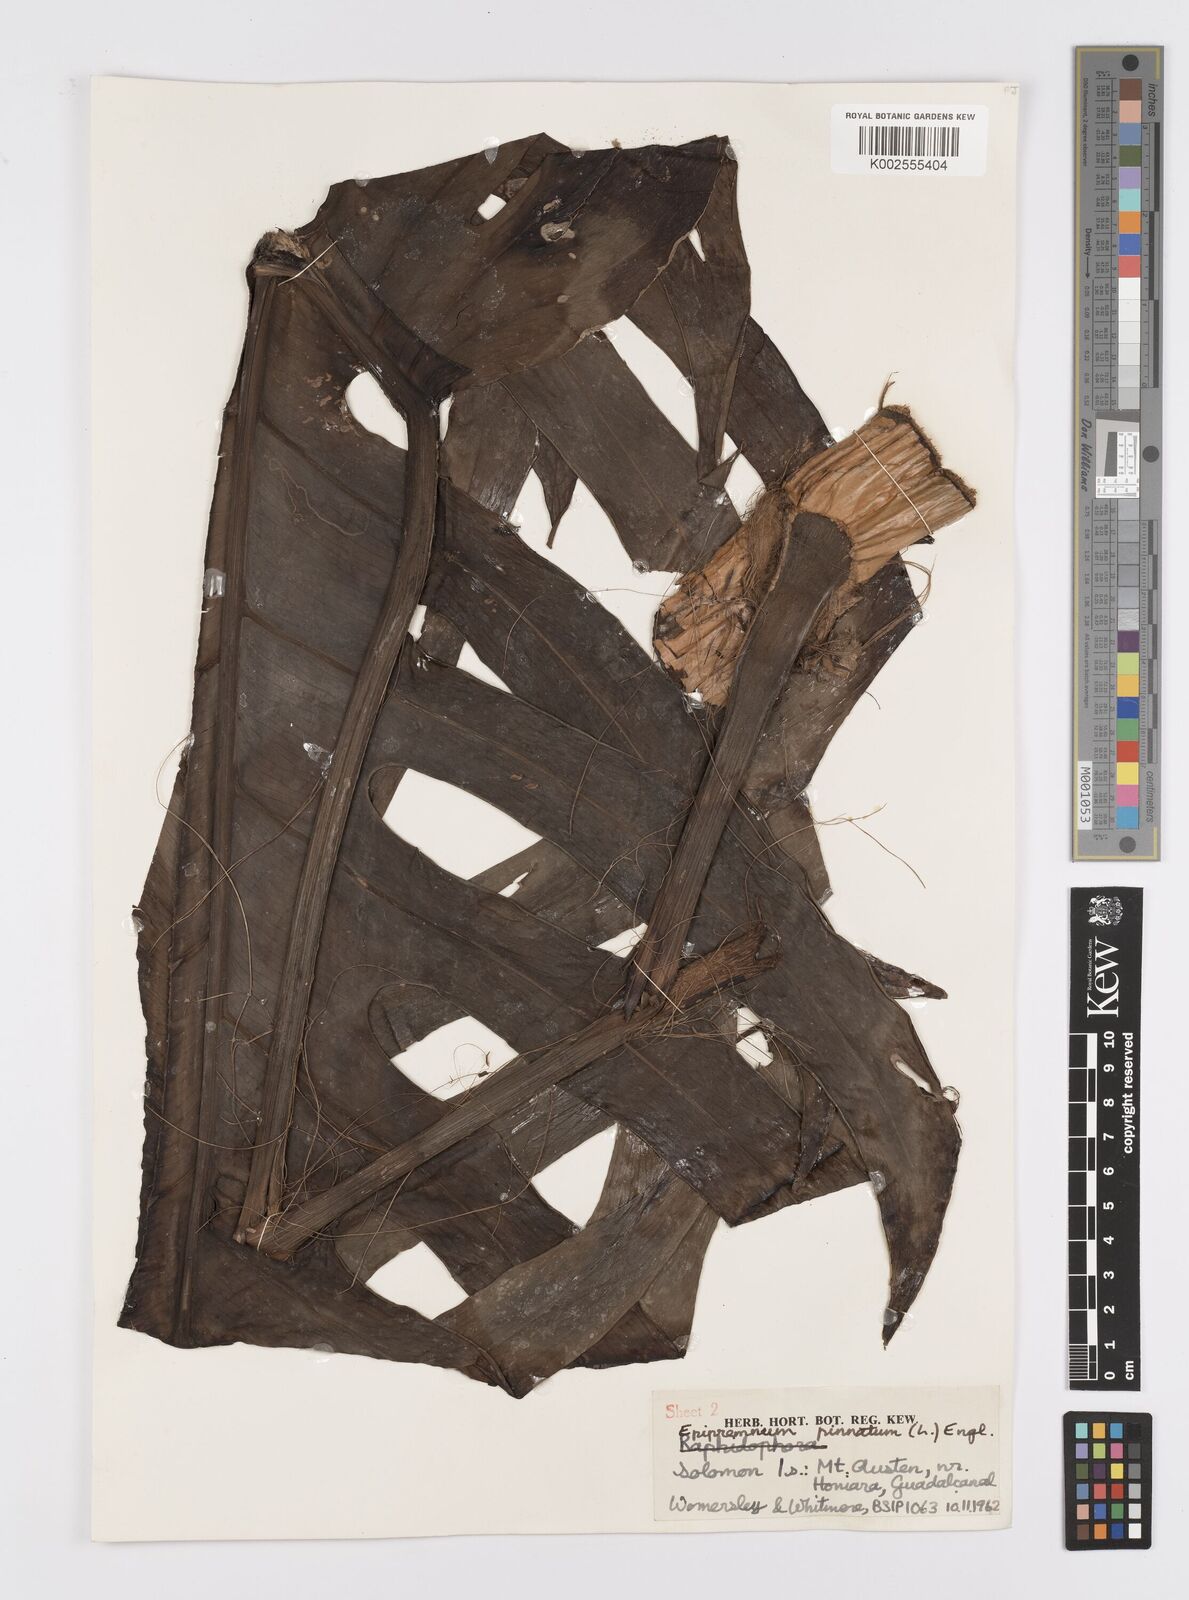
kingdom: Plantae
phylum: Tracheophyta
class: Liliopsida
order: Alismatales
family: Araceae
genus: Epipremnum
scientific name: Epipremnum pinnatum
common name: Centipede tongavine
